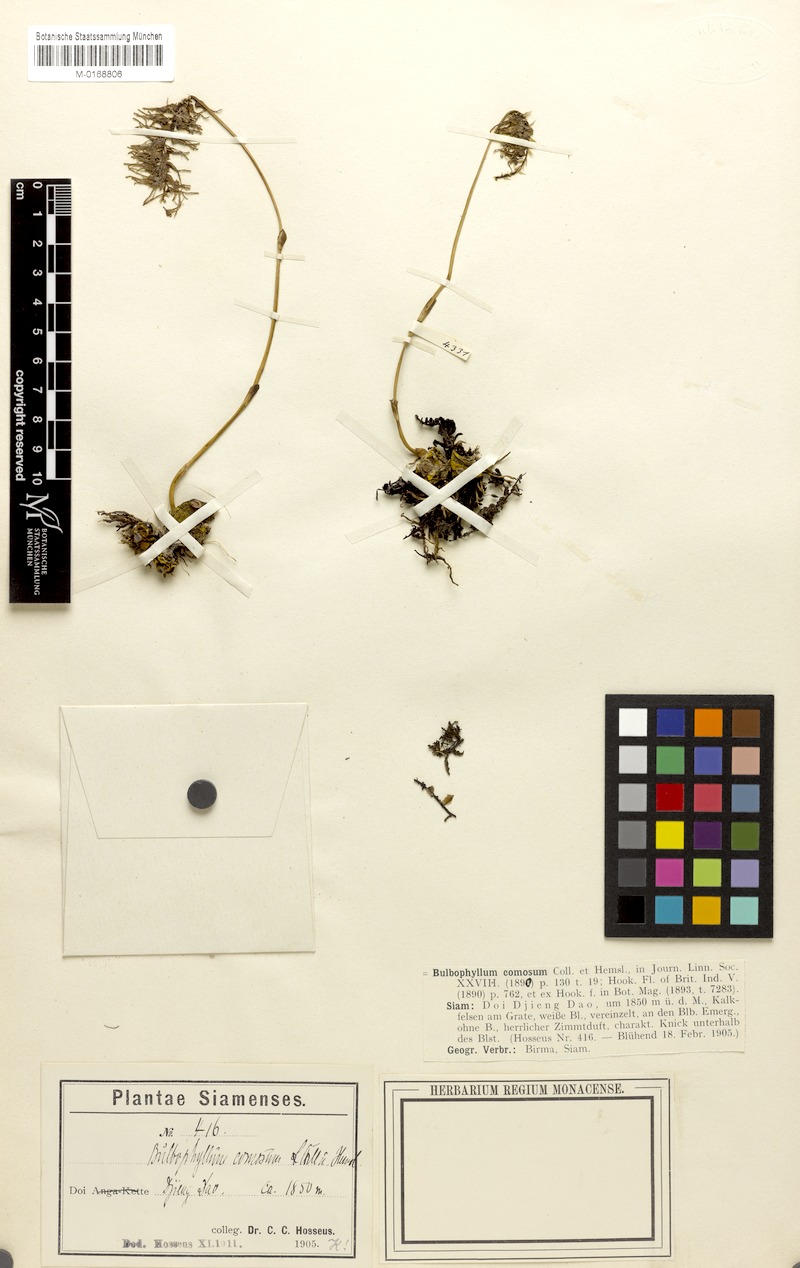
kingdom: Plantae
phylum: Tracheophyta
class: Liliopsida
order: Asparagales
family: Orchidaceae
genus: Bulbophyllum
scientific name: Bulbophyllum comosum
